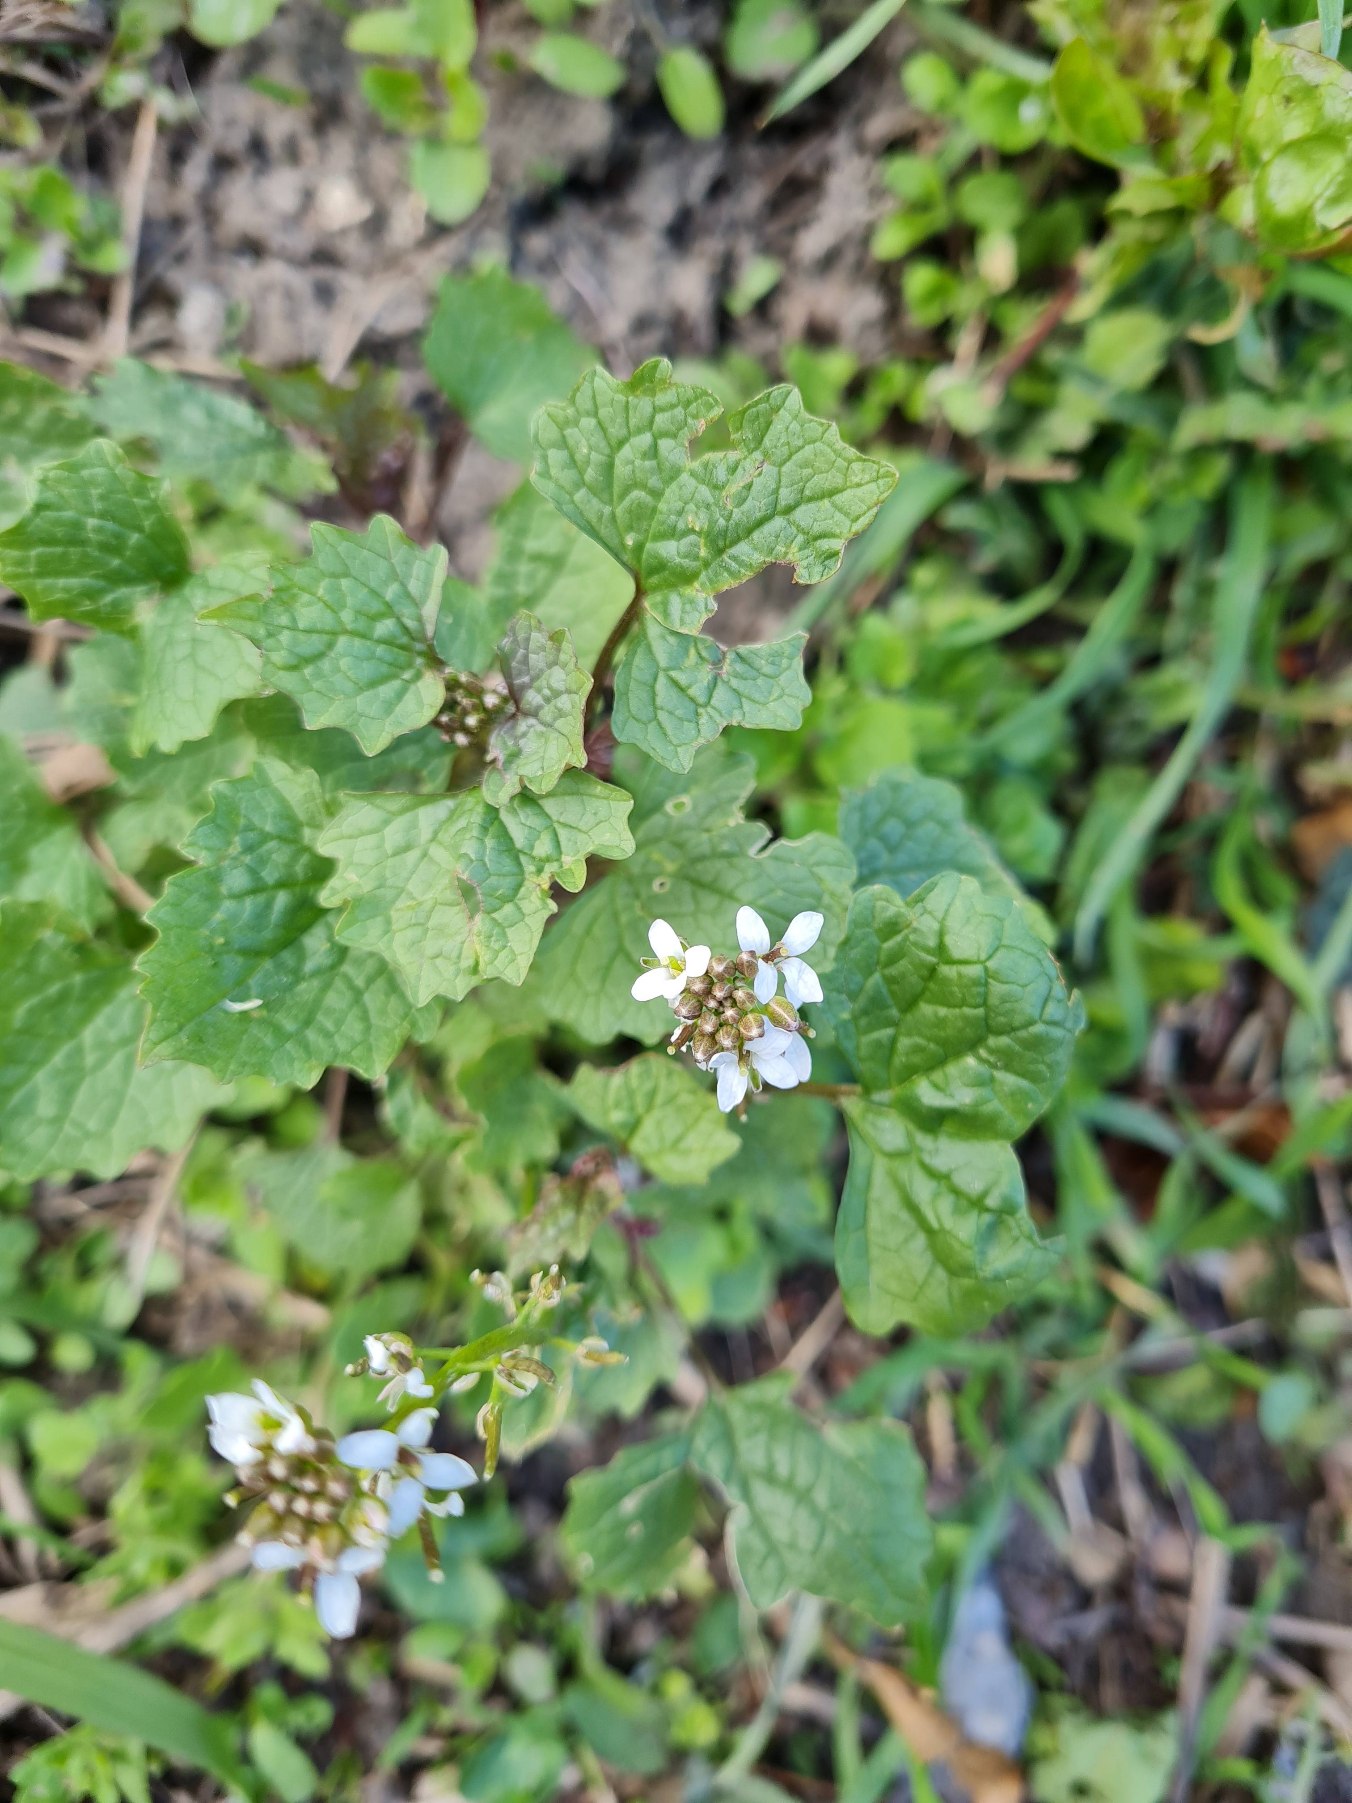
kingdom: Plantae
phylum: Tracheophyta
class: Magnoliopsida
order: Brassicales
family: Brassicaceae
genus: Alliaria
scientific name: Alliaria petiolata
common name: Løgkarse
